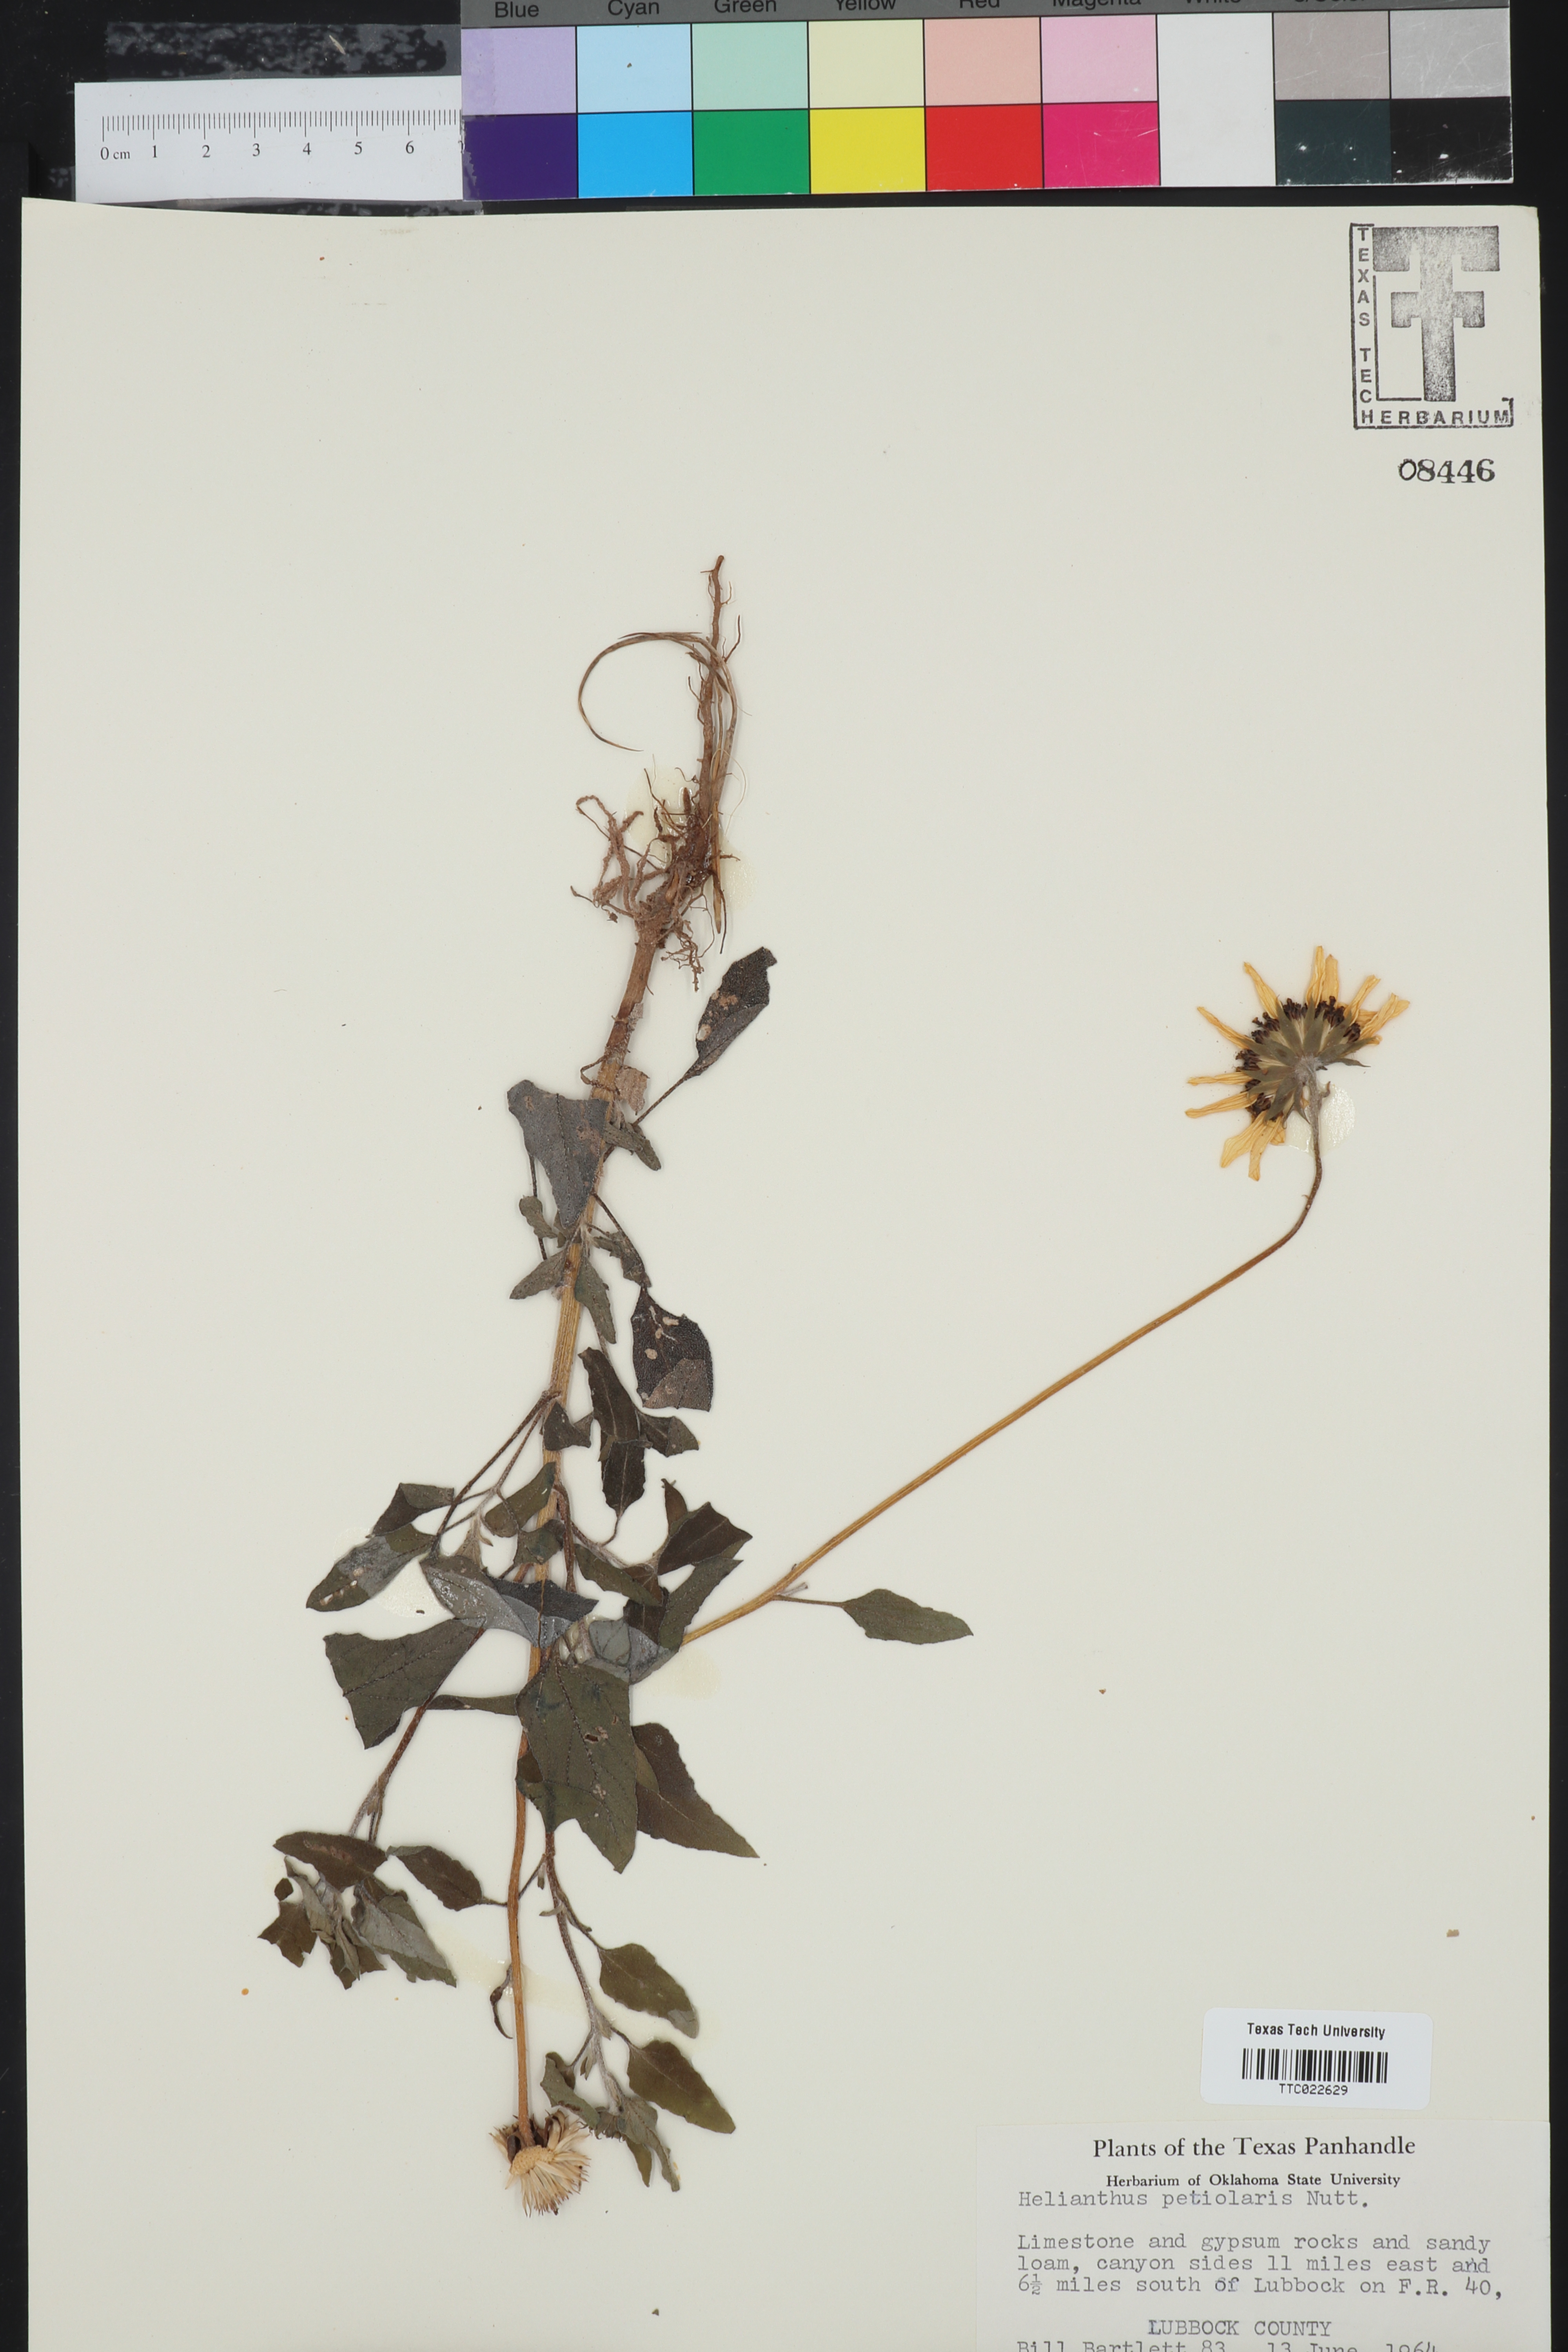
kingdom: Plantae
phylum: Tracheophyta
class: Magnoliopsida
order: Asterales
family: Asteraceae
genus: Helianthus
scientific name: Helianthus petiolaris
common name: Lesser sunflower
